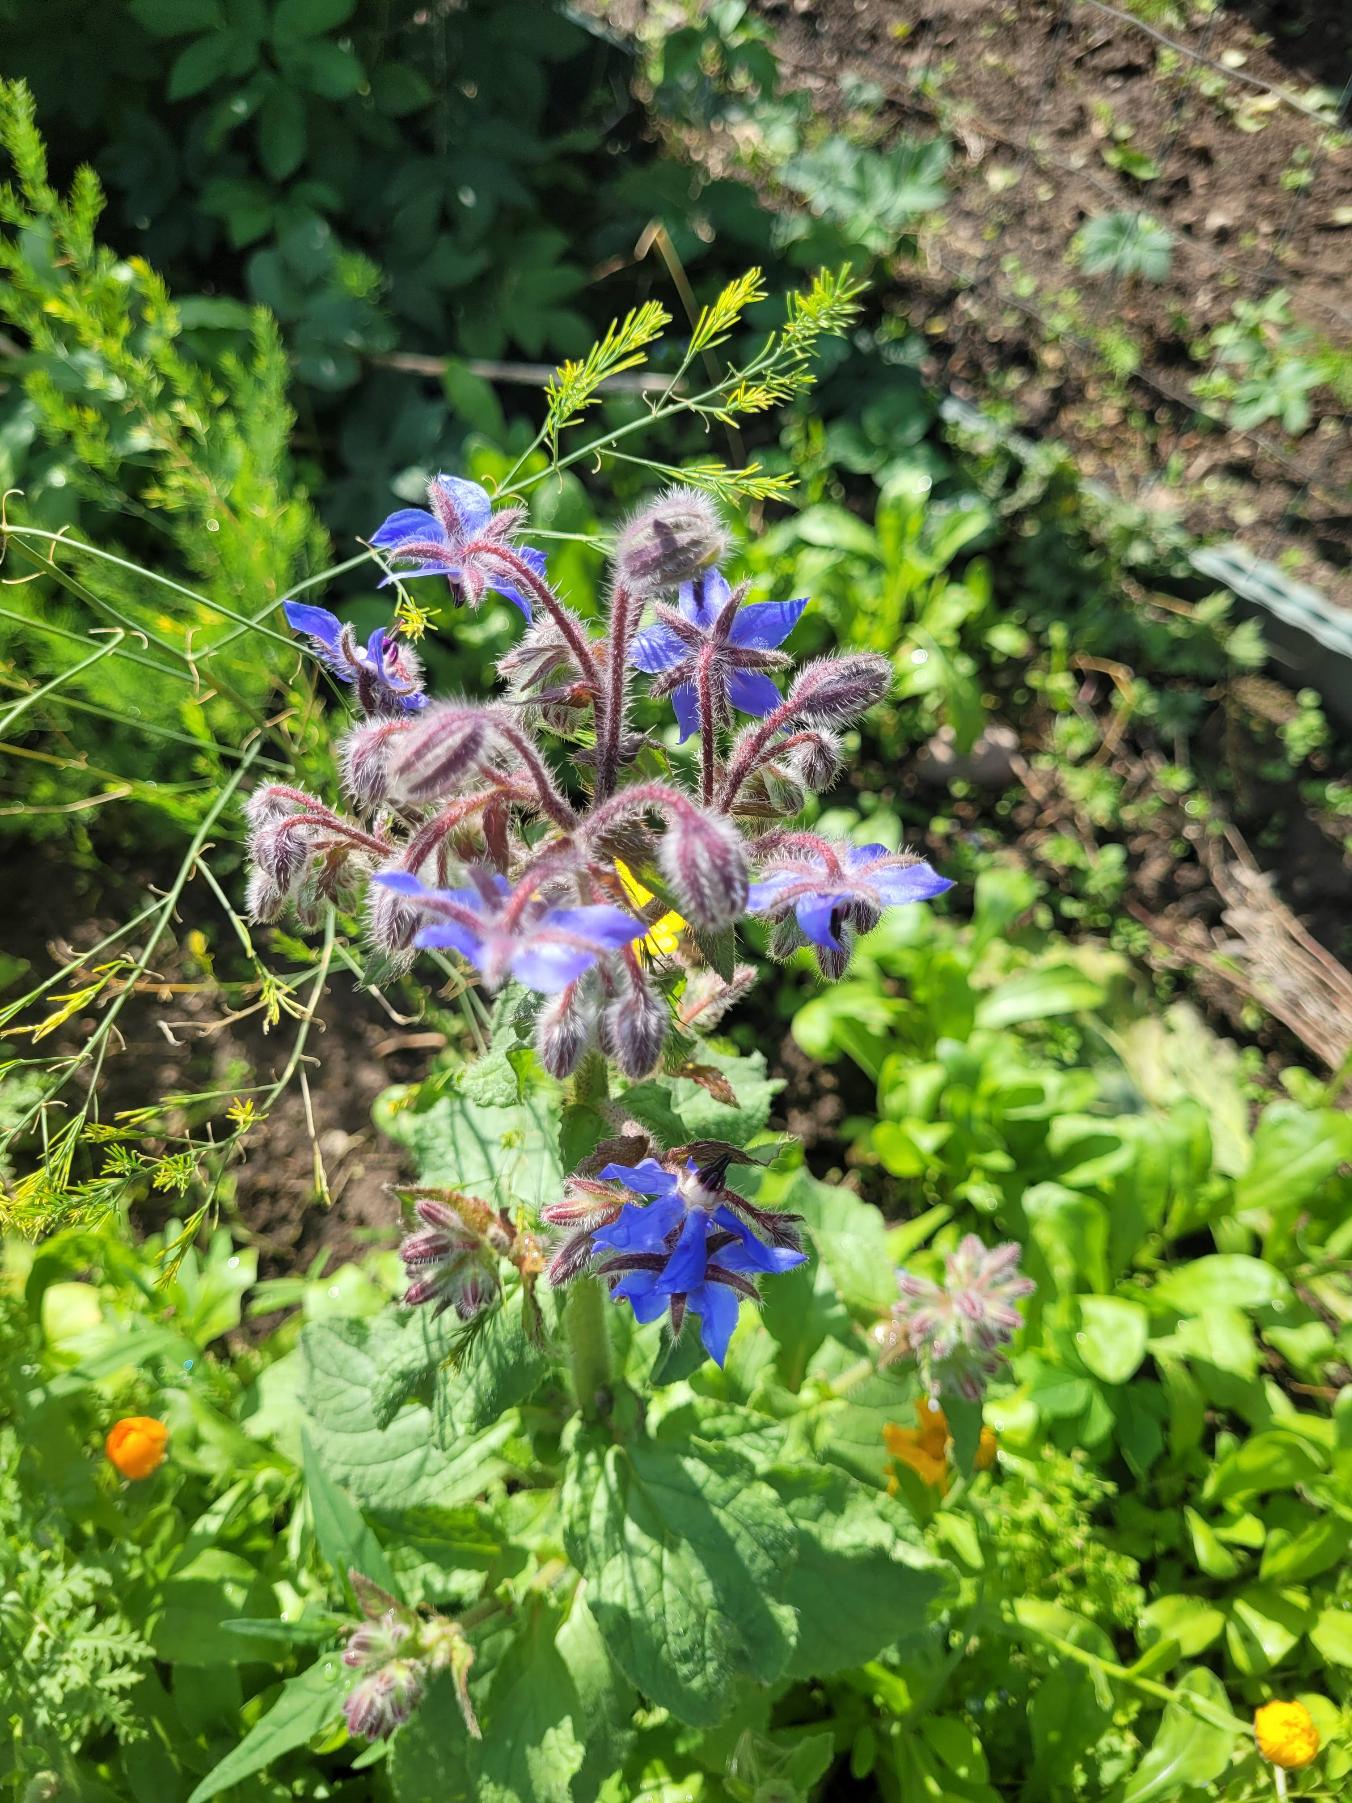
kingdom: Plantae
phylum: Tracheophyta
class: Magnoliopsida
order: Boraginales
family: Boraginaceae
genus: Borago
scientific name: Borago officinalis
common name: Hjulkrone
